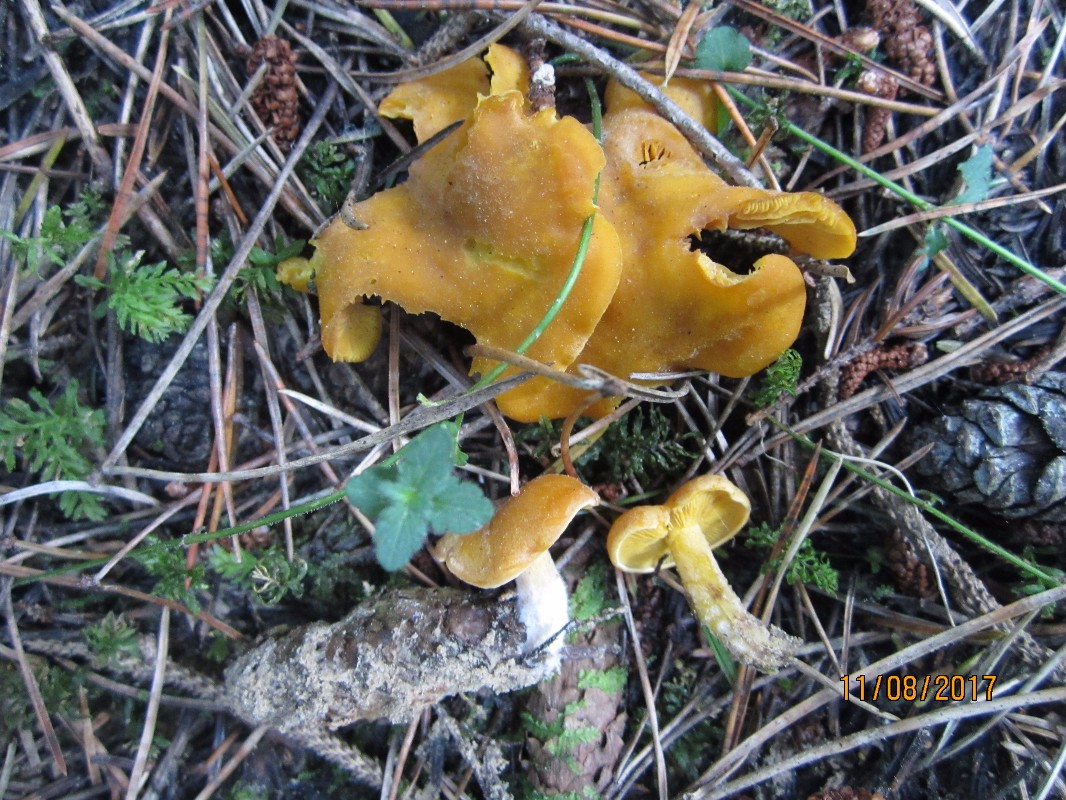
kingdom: Fungi
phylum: Basidiomycota
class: Agaricomycetes
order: Agaricales
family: Lyophyllaceae
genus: Calocybe
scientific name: Calocybe chrysenteron
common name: brandgul fagerhat
